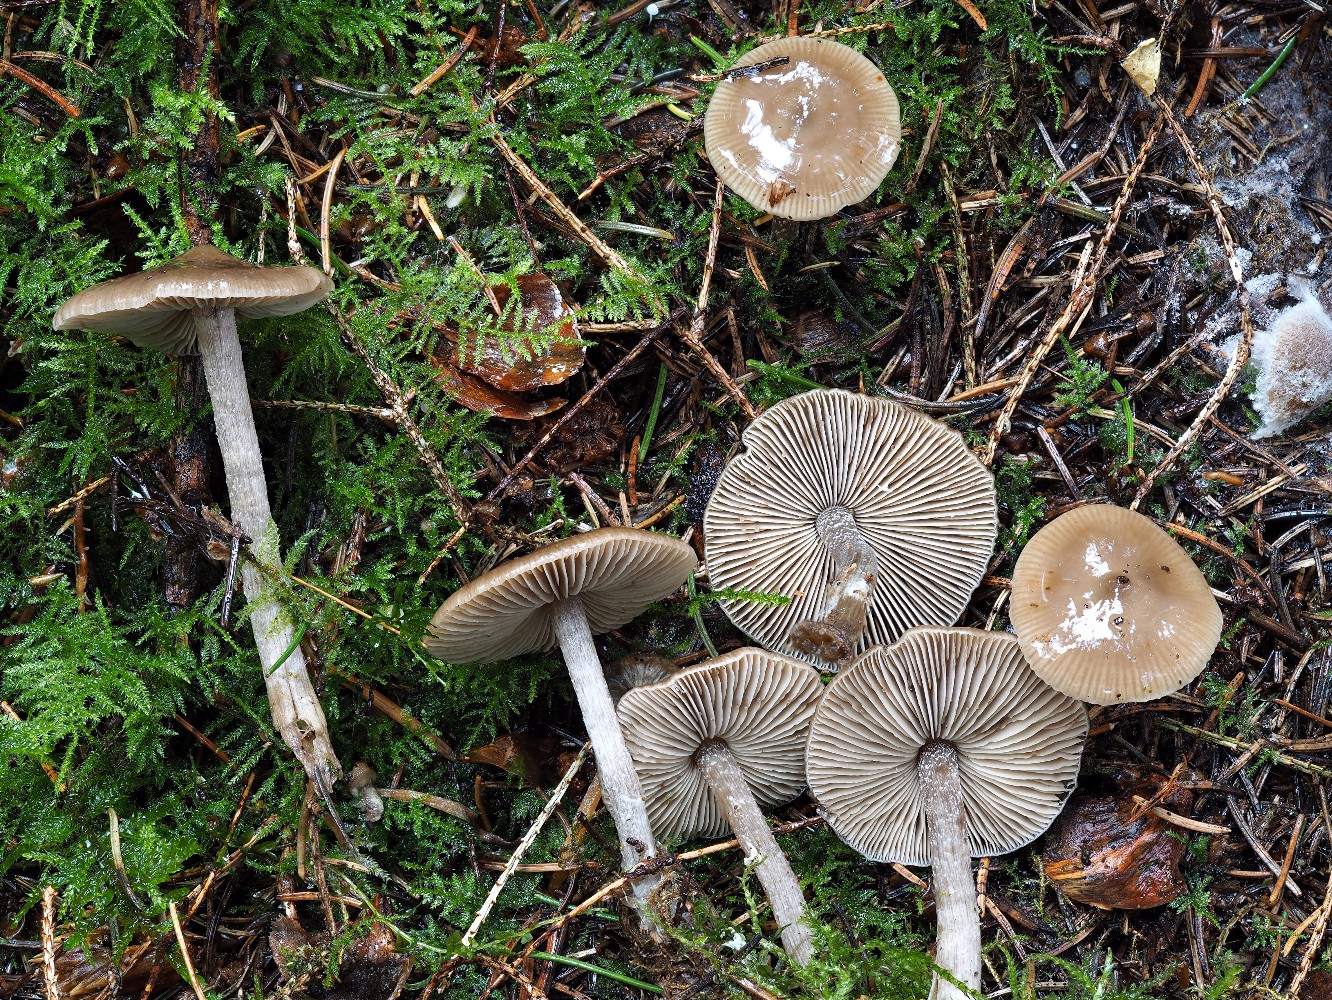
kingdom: Fungi
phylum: Basidiomycota
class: Agaricomycetes
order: Agaricales
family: Lyophyllaceae
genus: Myochromella
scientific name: Myochromella boudieri
